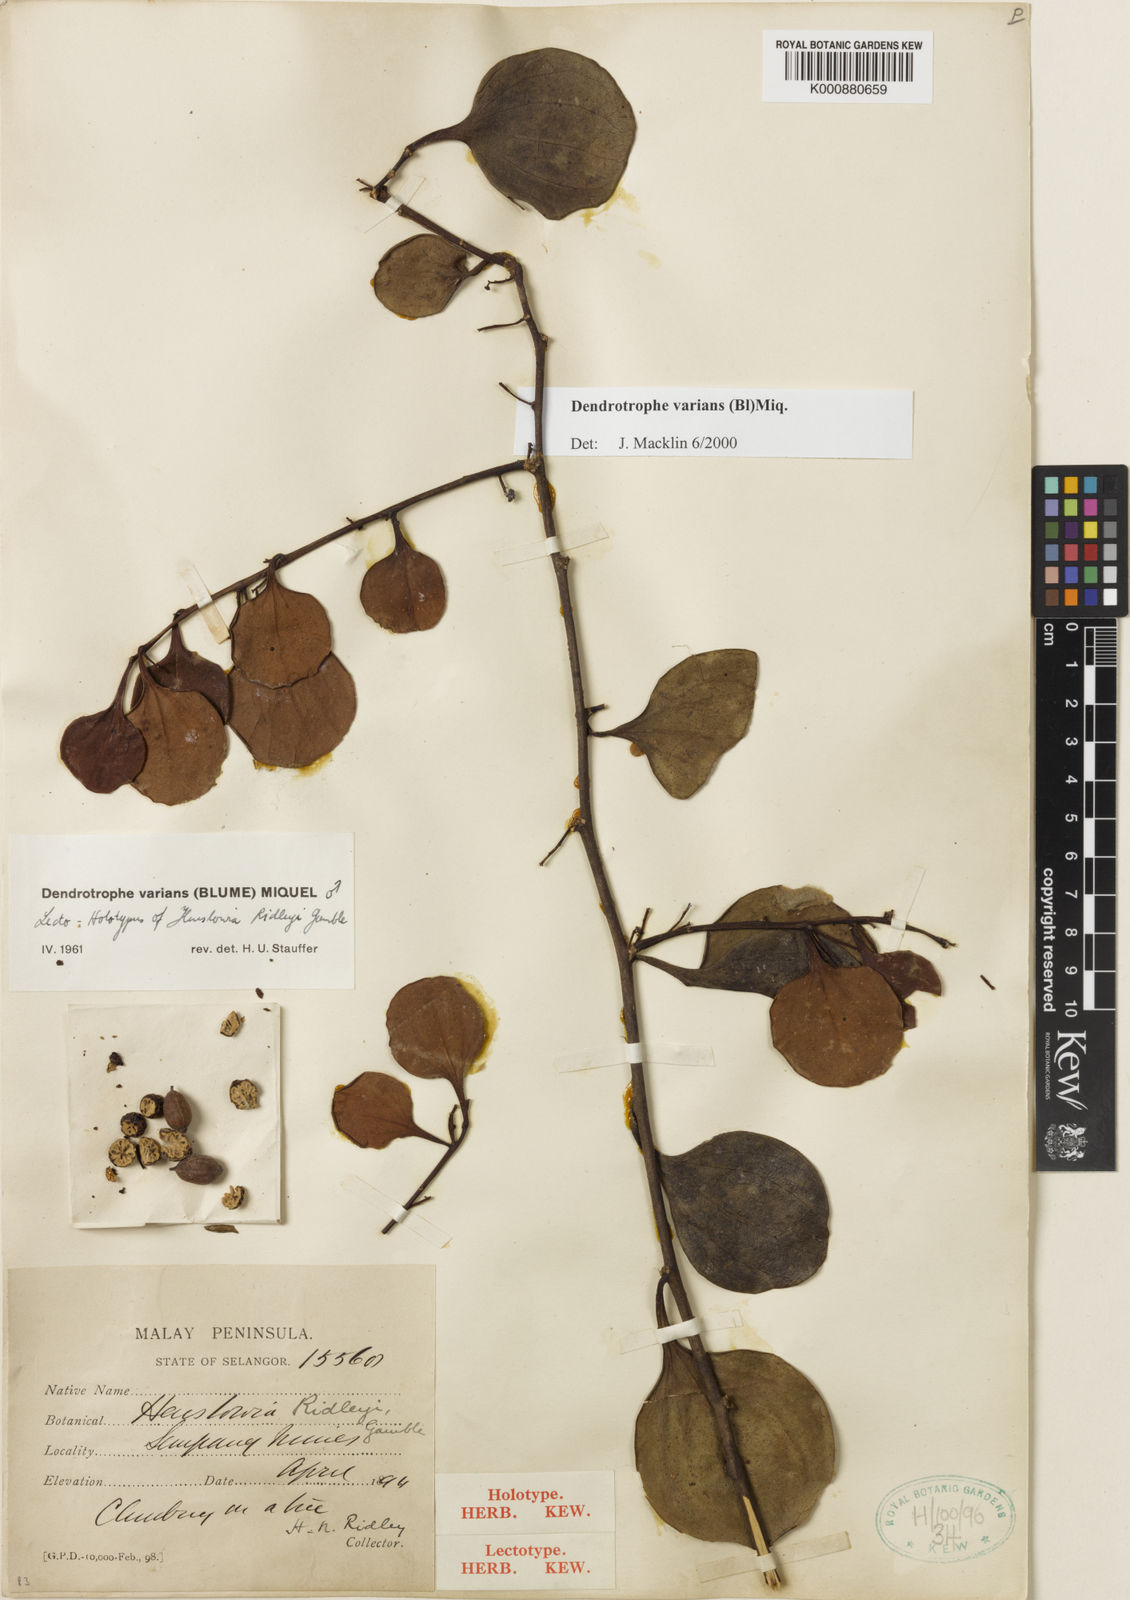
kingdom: Plantae
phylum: Tracheophyta
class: Magnoliopsida
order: Santalales
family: Amphorogynaceae
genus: Dendrotrophe
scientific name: Dendrotrophe varians
